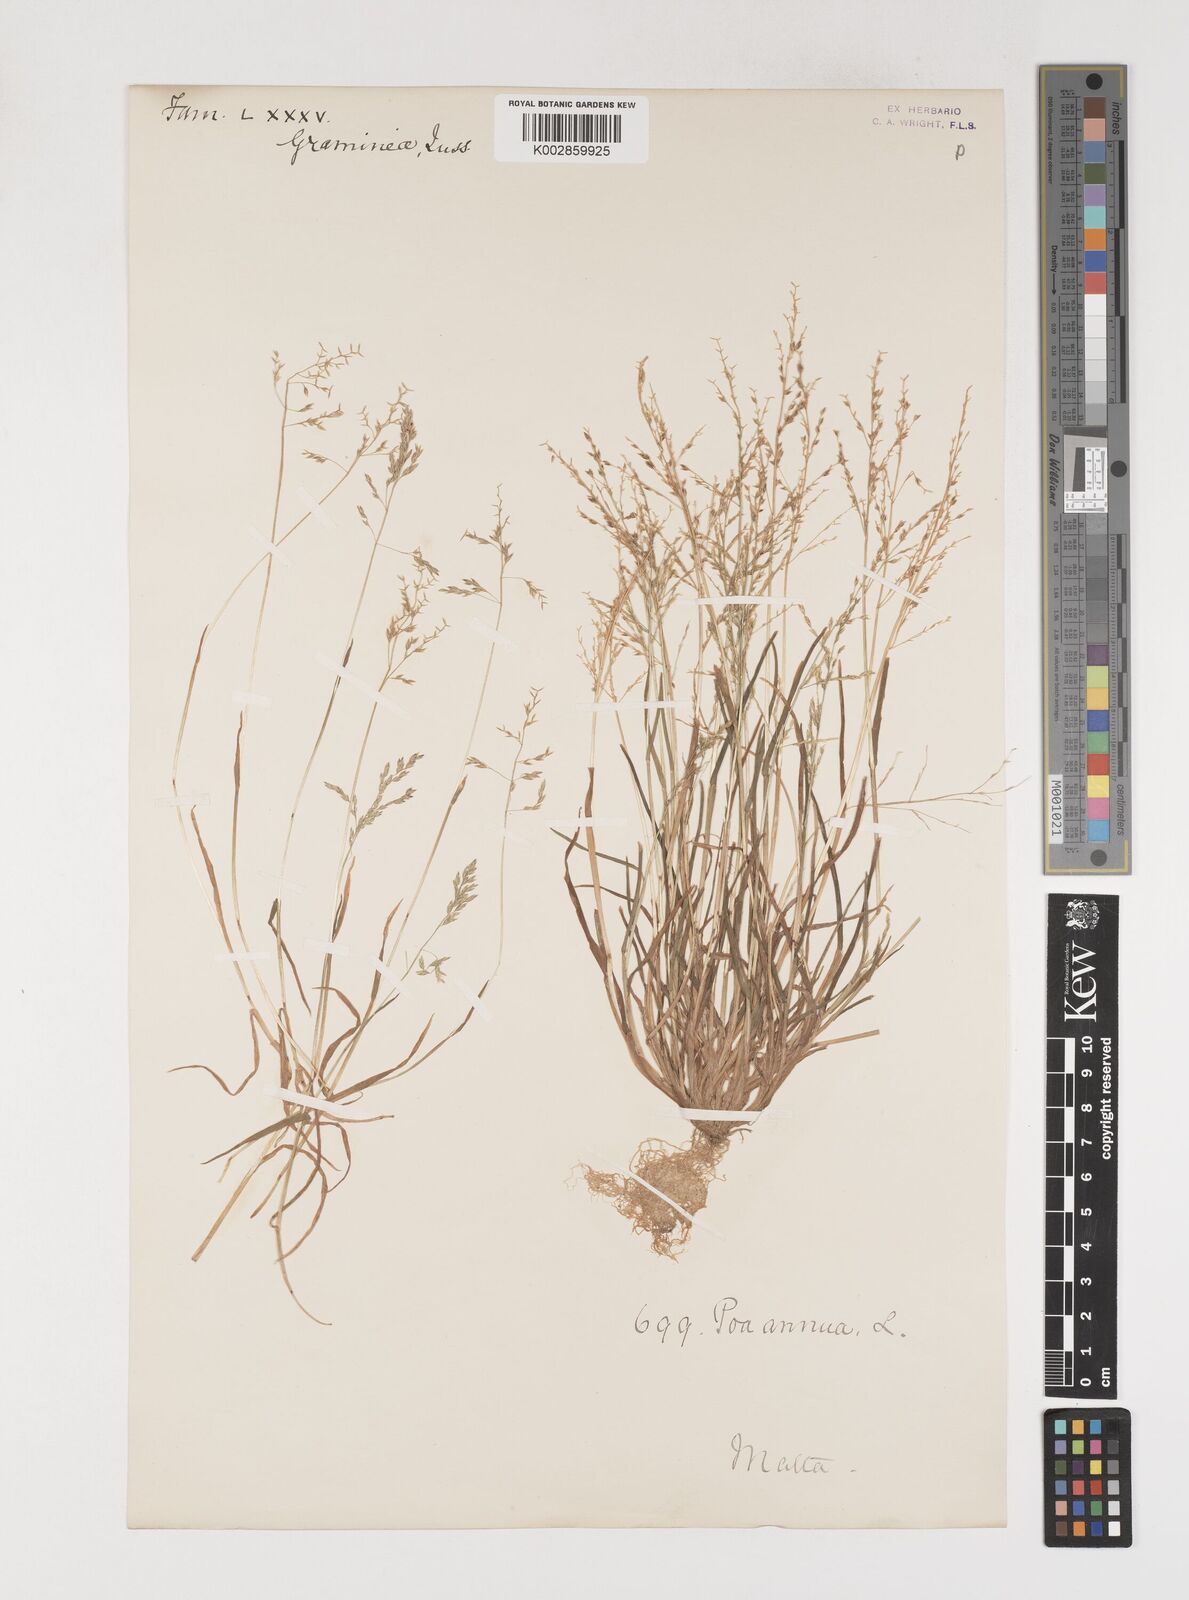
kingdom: Plantae
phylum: Tracheophyta
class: Liliopsida
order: Poales
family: Poaceae
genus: Poa
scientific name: Poa annua
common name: Annual bluegrass
